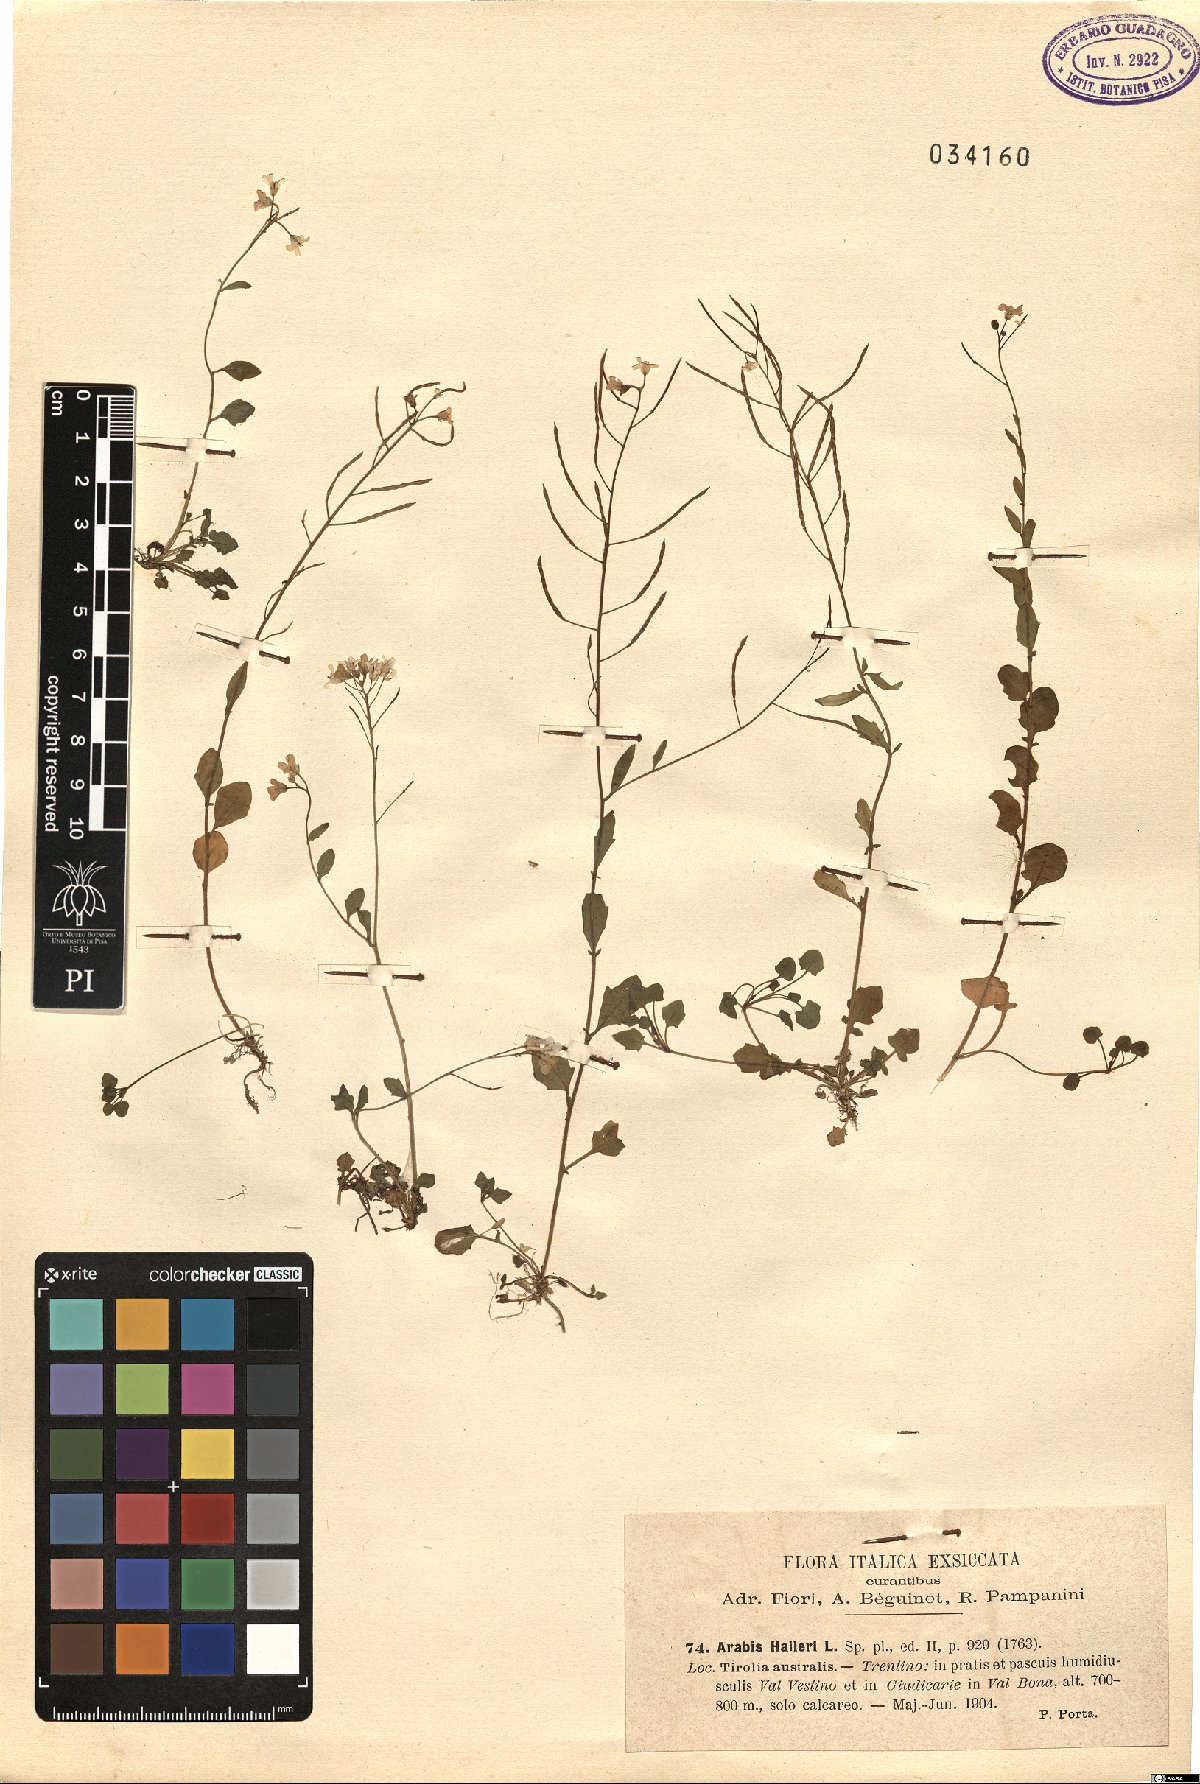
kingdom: Plantae
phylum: Tracheophyta
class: Magnoliopsida
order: Brassicales
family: Brassicaceae
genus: Arabidopsis
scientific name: Arabidopsis halleri
